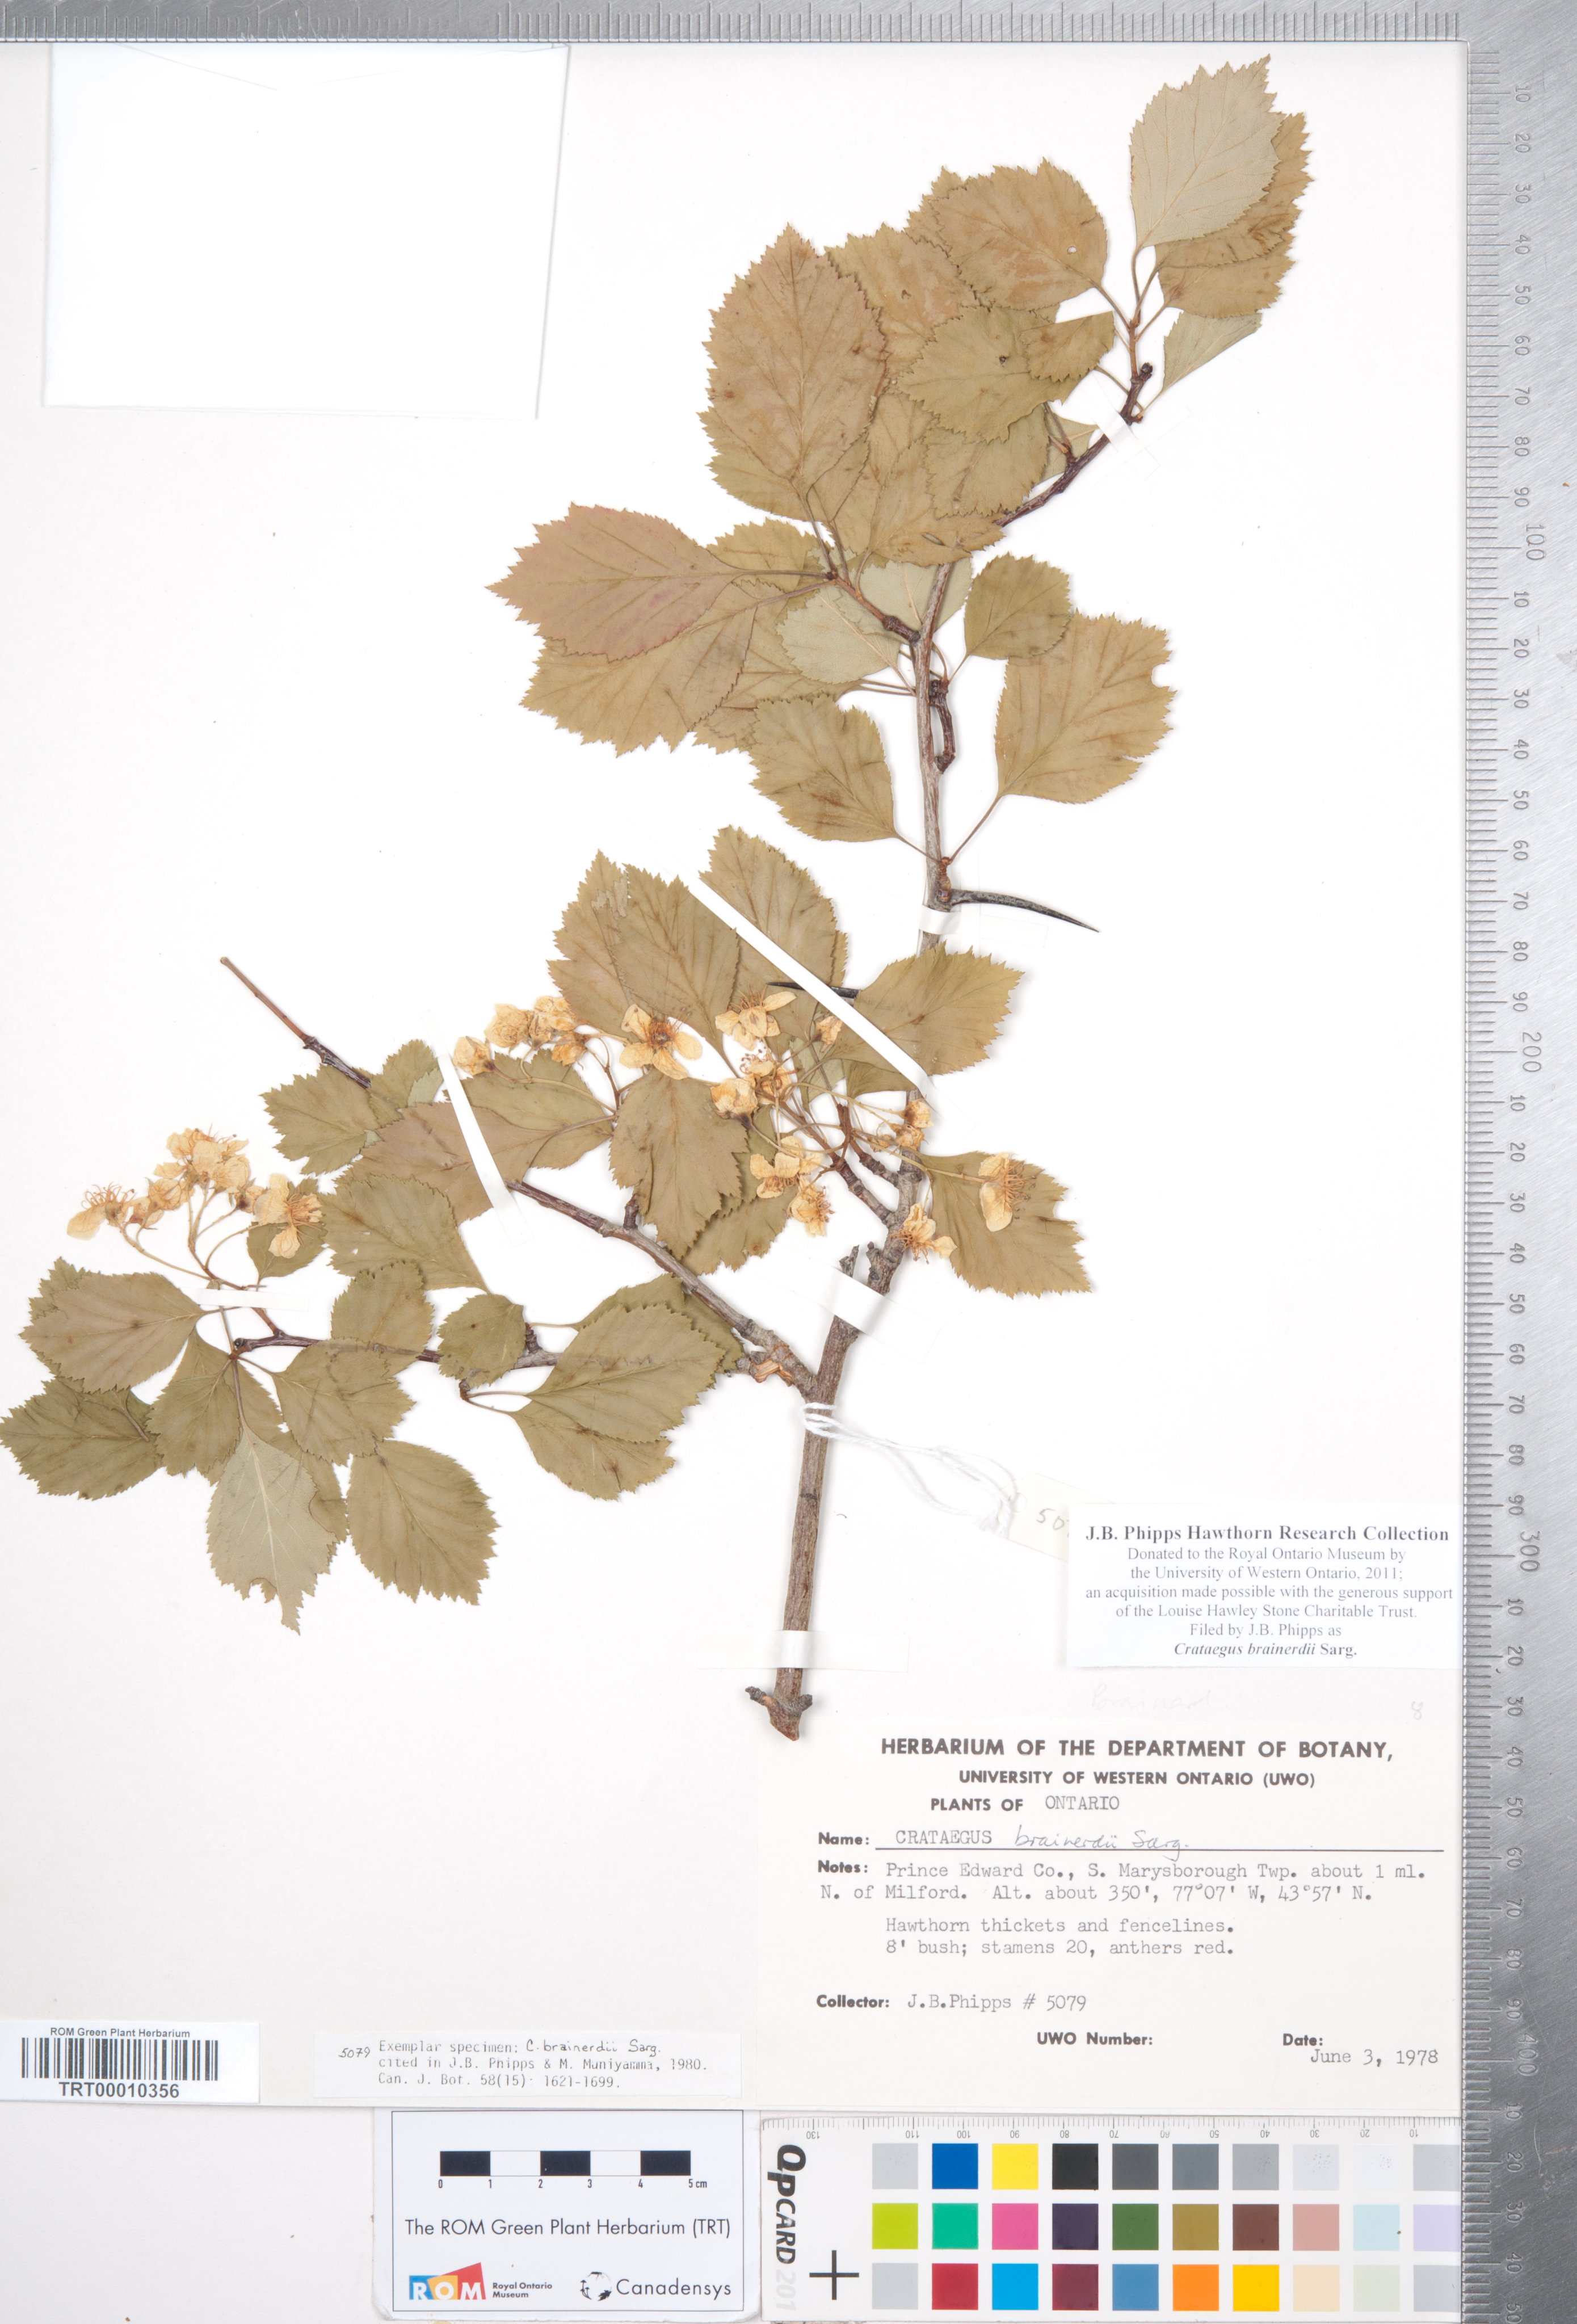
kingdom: Plantae
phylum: Tracheophyta
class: Magnoliopsida
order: Rosales
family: Rosaceae
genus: Crataegus
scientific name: Crataegus scabrida
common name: Rough hawthorn
